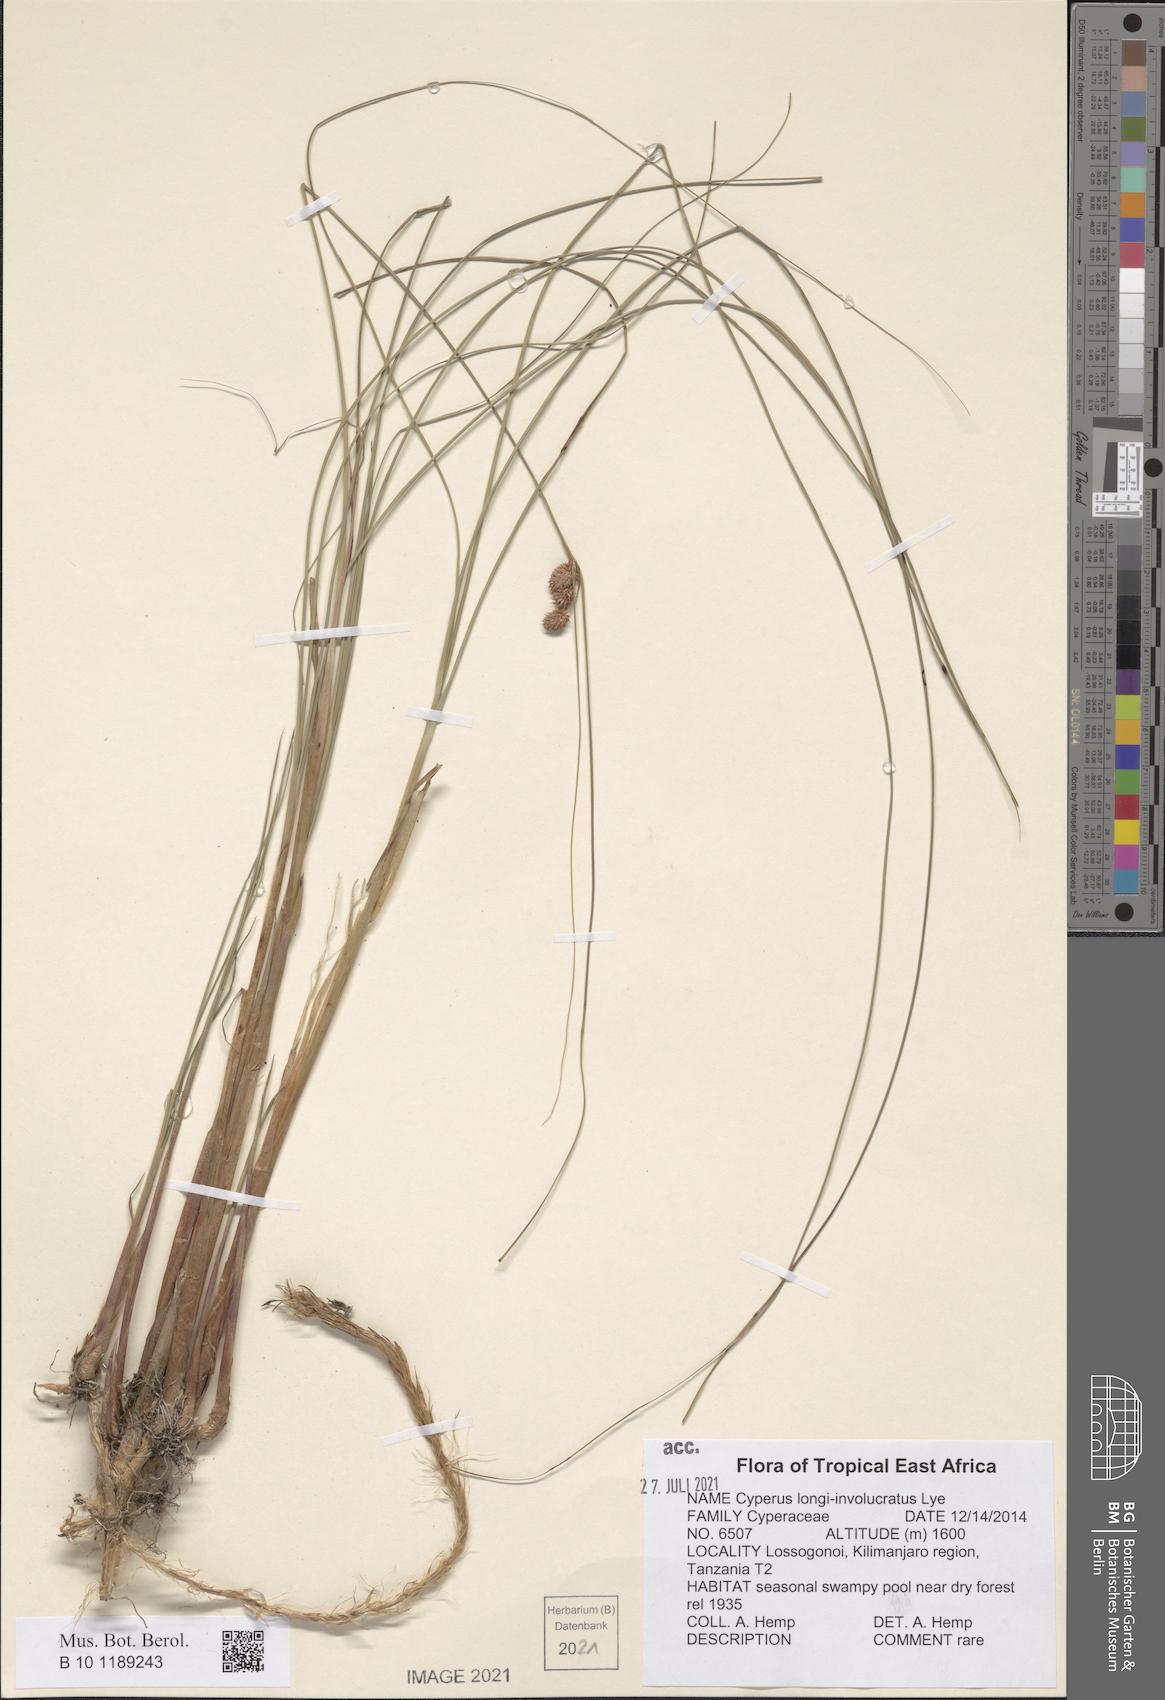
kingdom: Plantae
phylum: Tracheophyta
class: Liliopsida
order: Poales
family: Cyperaceae
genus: Cyperus
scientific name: Cyperus longi-involucratus
